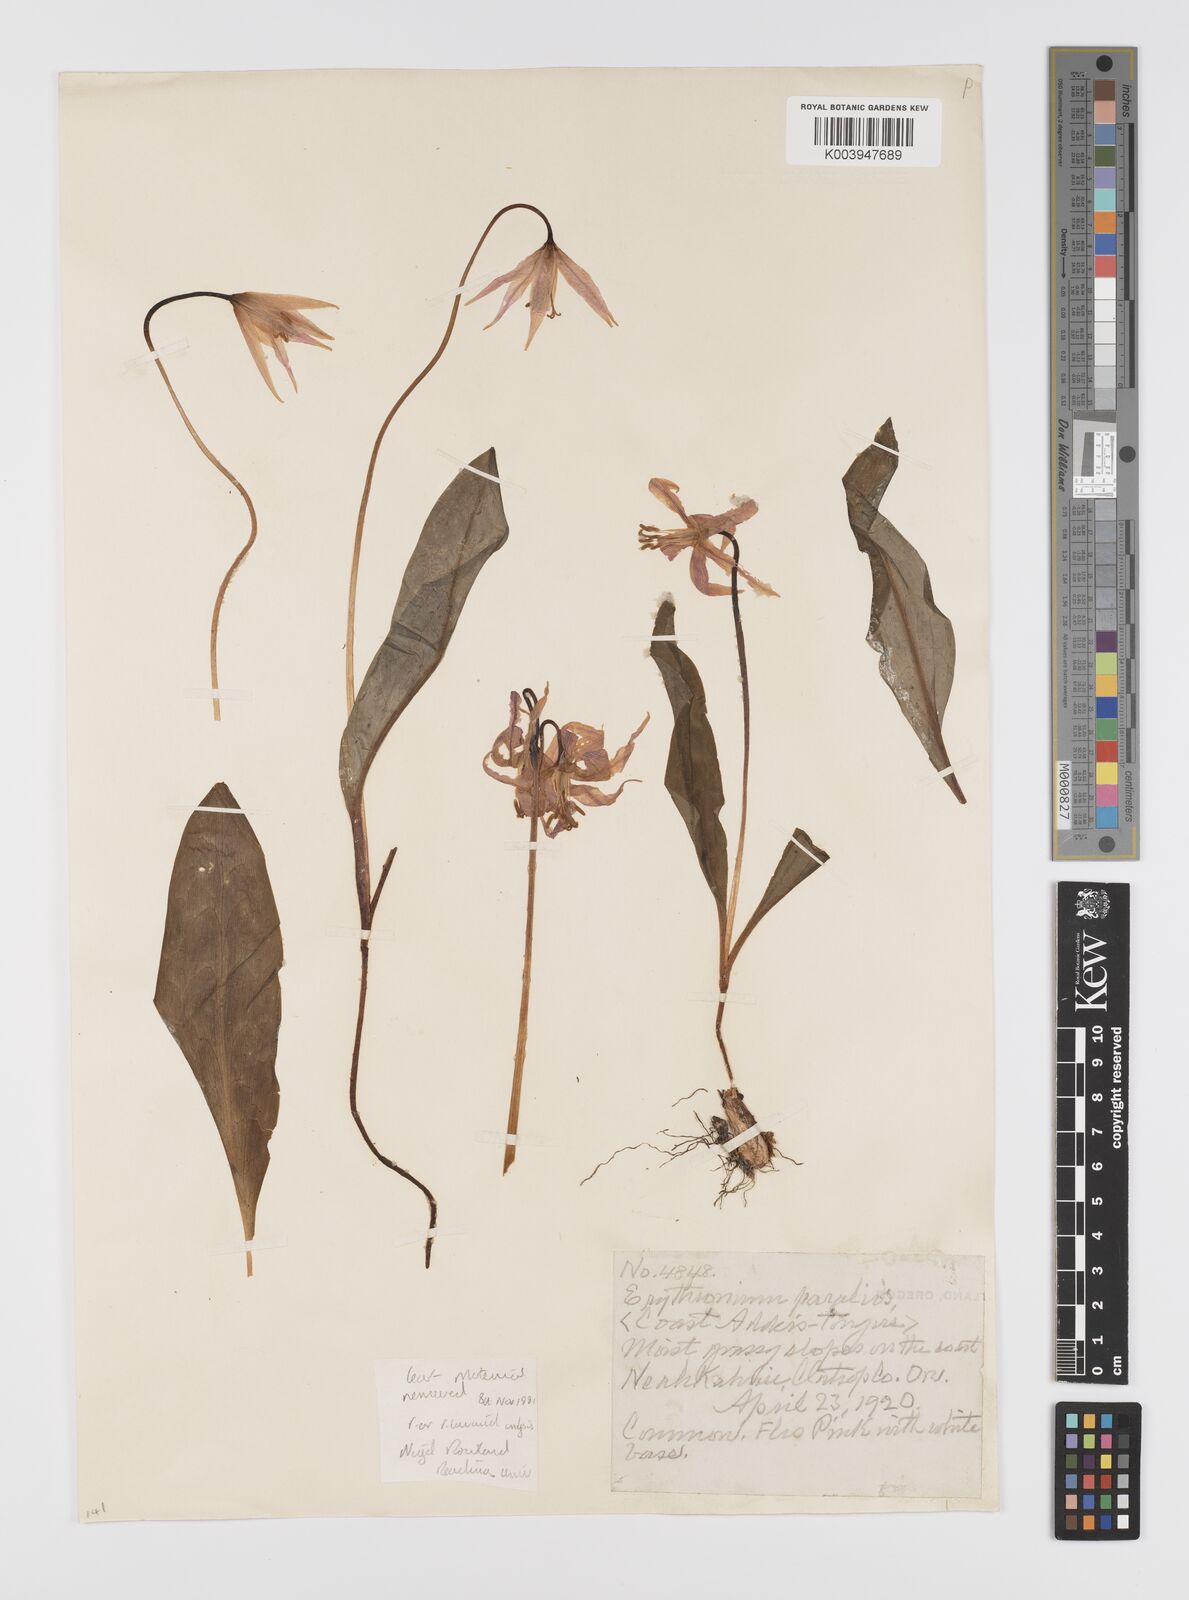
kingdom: Plantae
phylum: Tracheophyta
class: Liliopsida
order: Liliales
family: Liliaceae
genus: Erythronium
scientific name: Erythronium purpurascens
